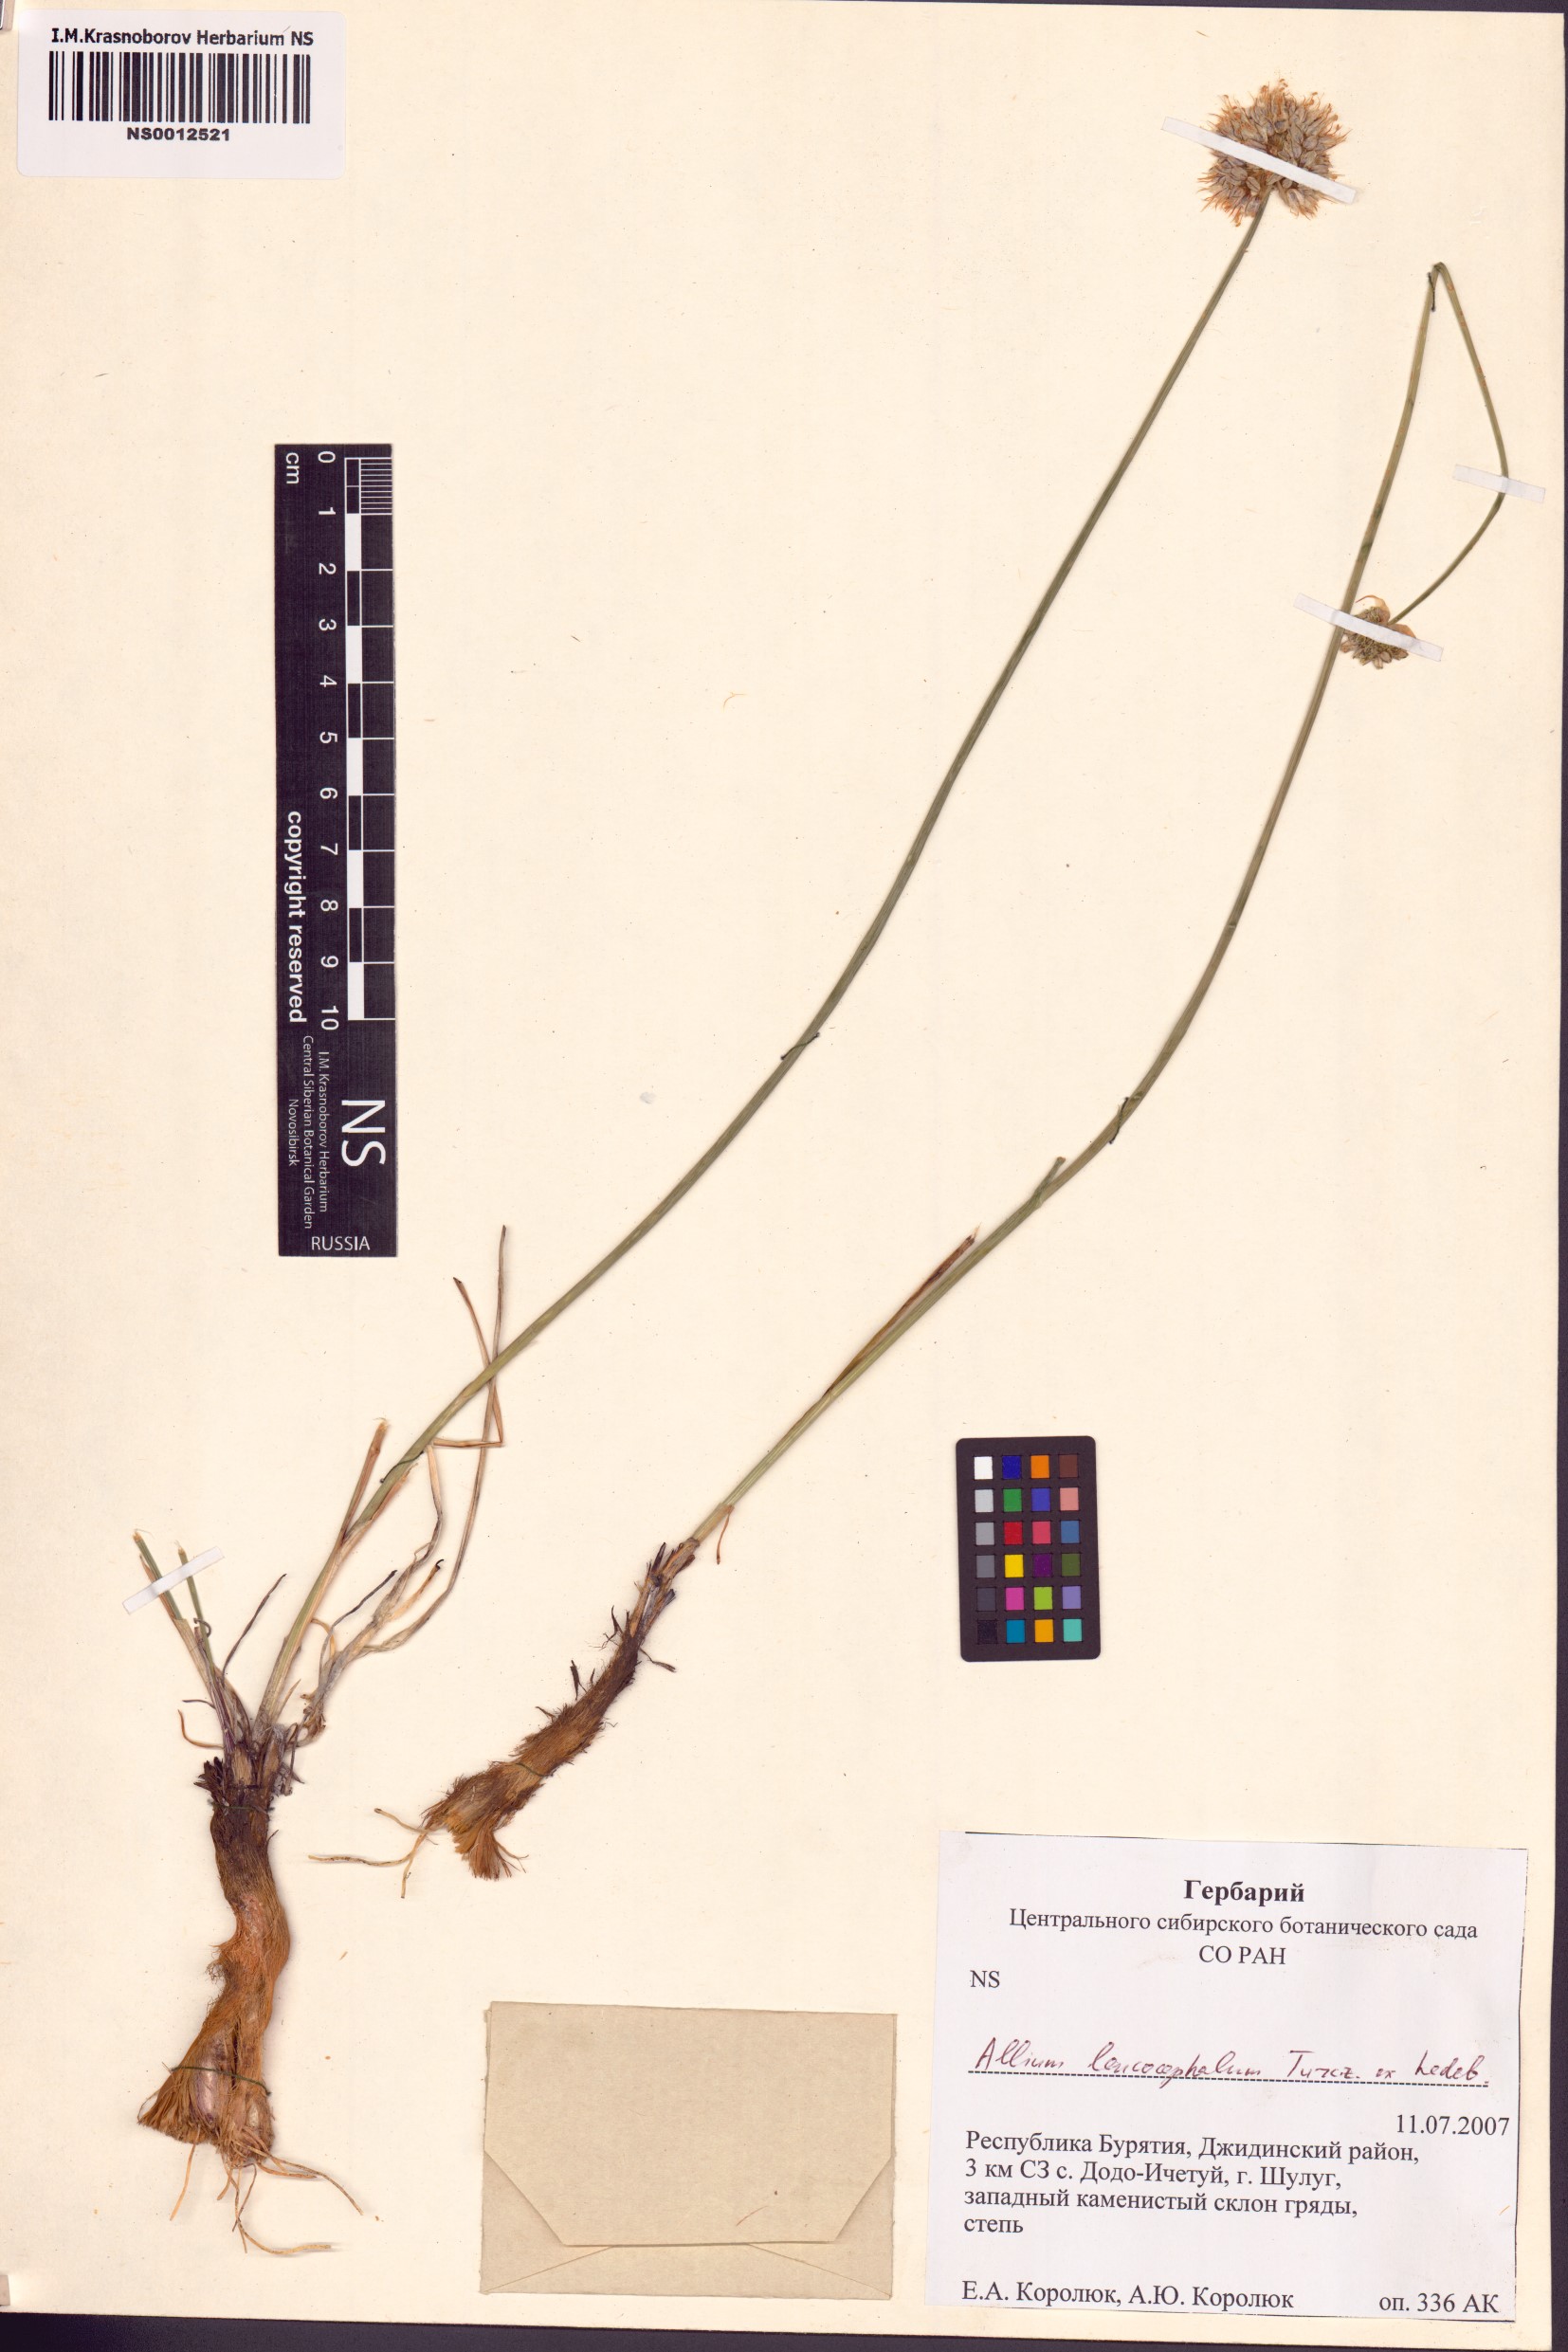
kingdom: Plantae
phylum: Tracheophyta
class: Liliopsida
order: Asparagales
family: Amaryllidaceae
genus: Allium
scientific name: Allium leucocephalum
